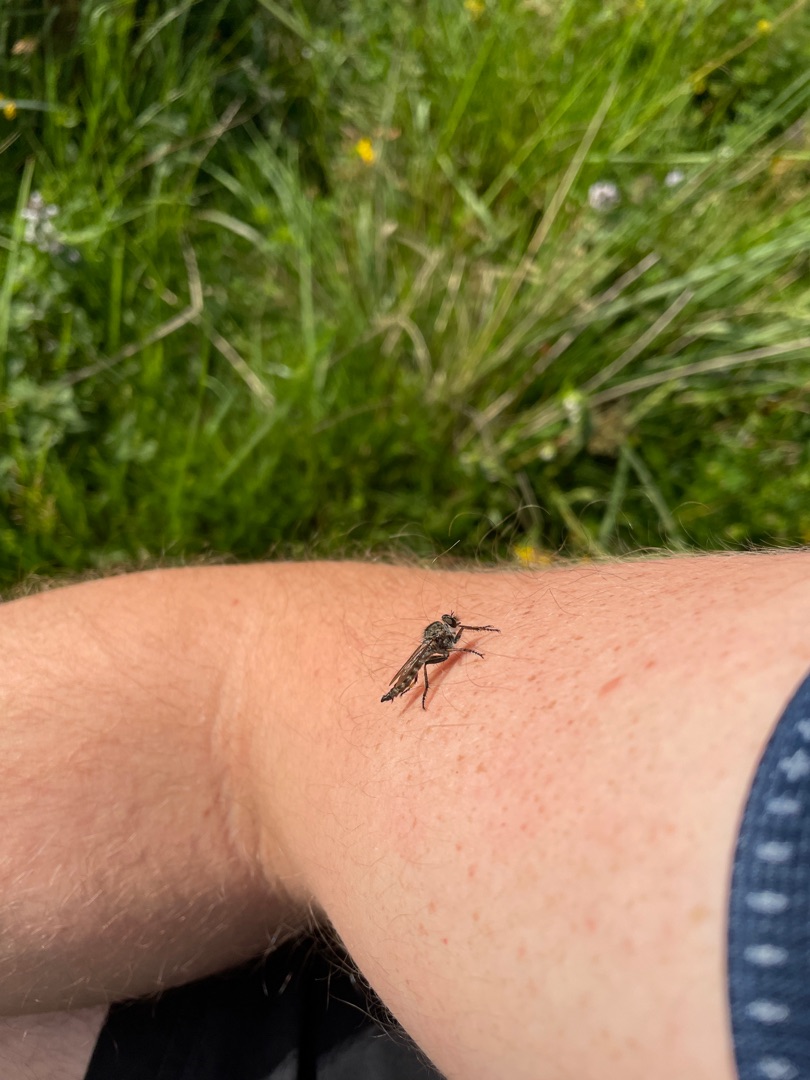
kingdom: Animalia
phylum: Arthropoda
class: Insecta
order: Diptera
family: Asilidae
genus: Machimus
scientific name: Machimus atricapillus
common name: Sort hårrovflue
